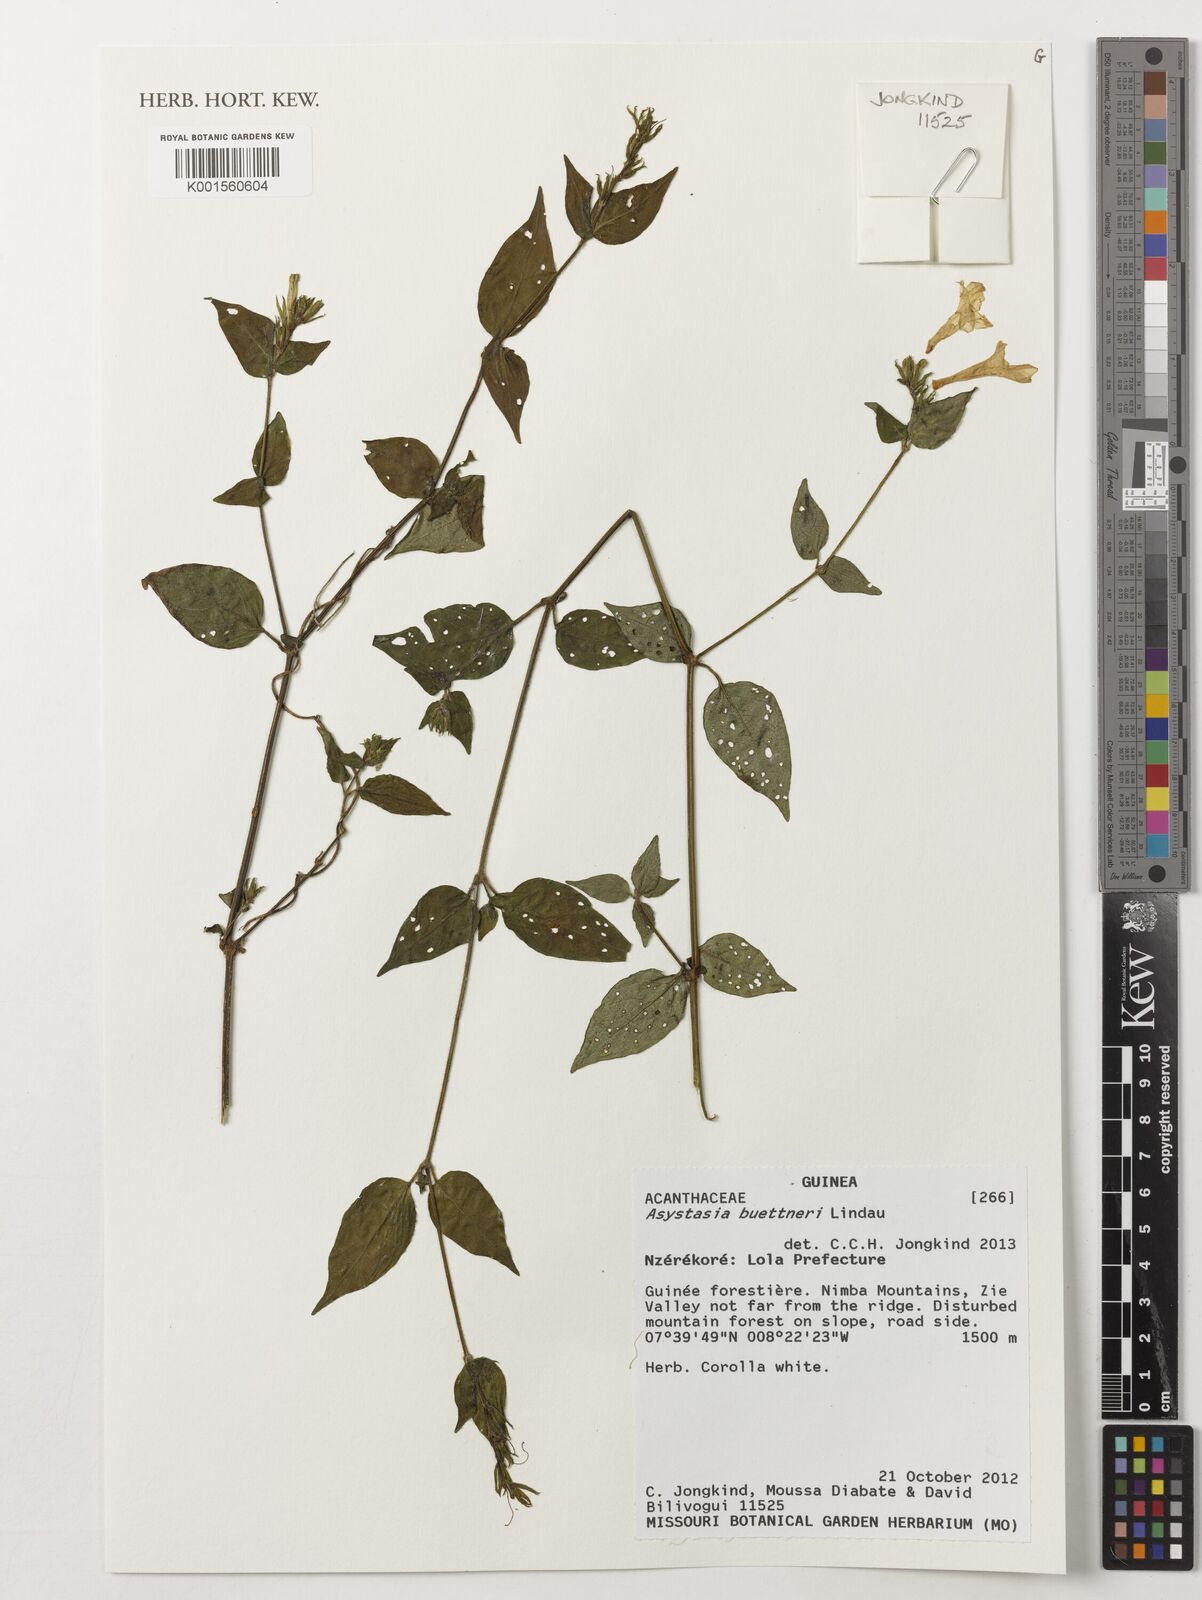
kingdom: Plantae
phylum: Tracheophyta
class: Magnoliopsida
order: Lamiales
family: Acanthaceae
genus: Asystasia
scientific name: Asystasia buettneri
